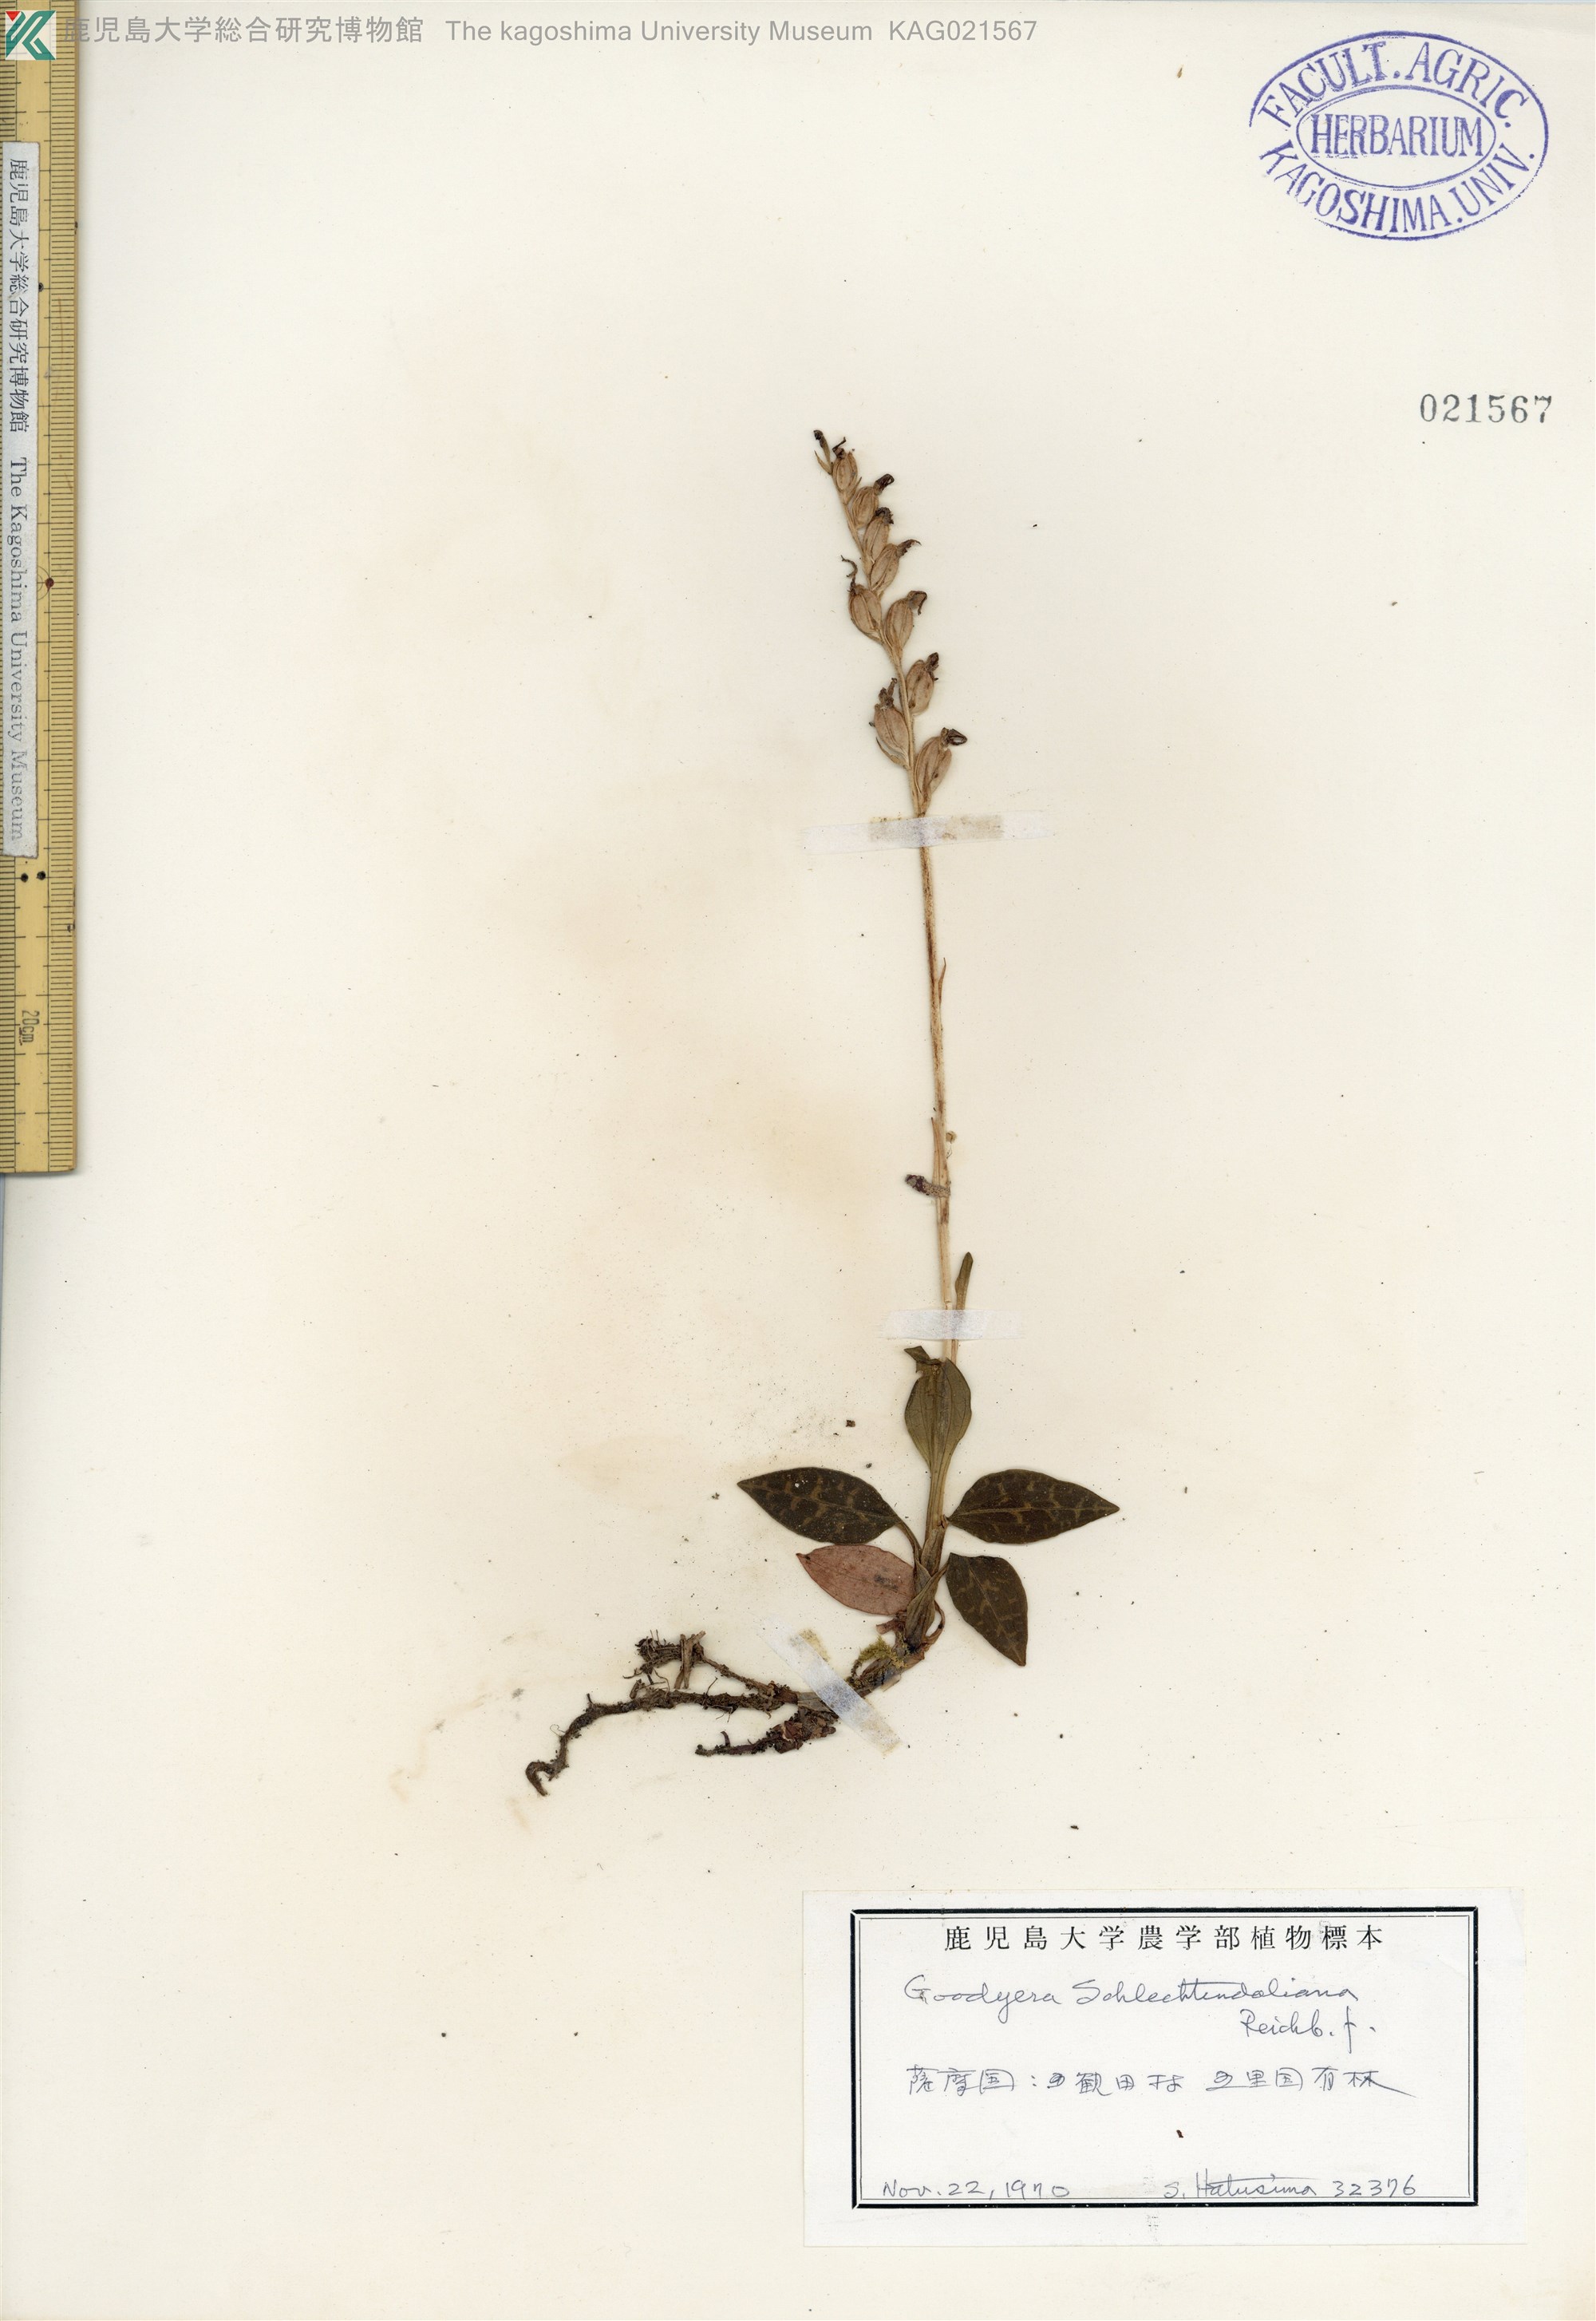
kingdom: Plantae
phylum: Tracheophyta
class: Liliopsida
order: Asparagales
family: Orchidaceae
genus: Goodyera
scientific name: Goodyera schlechtendaliana
